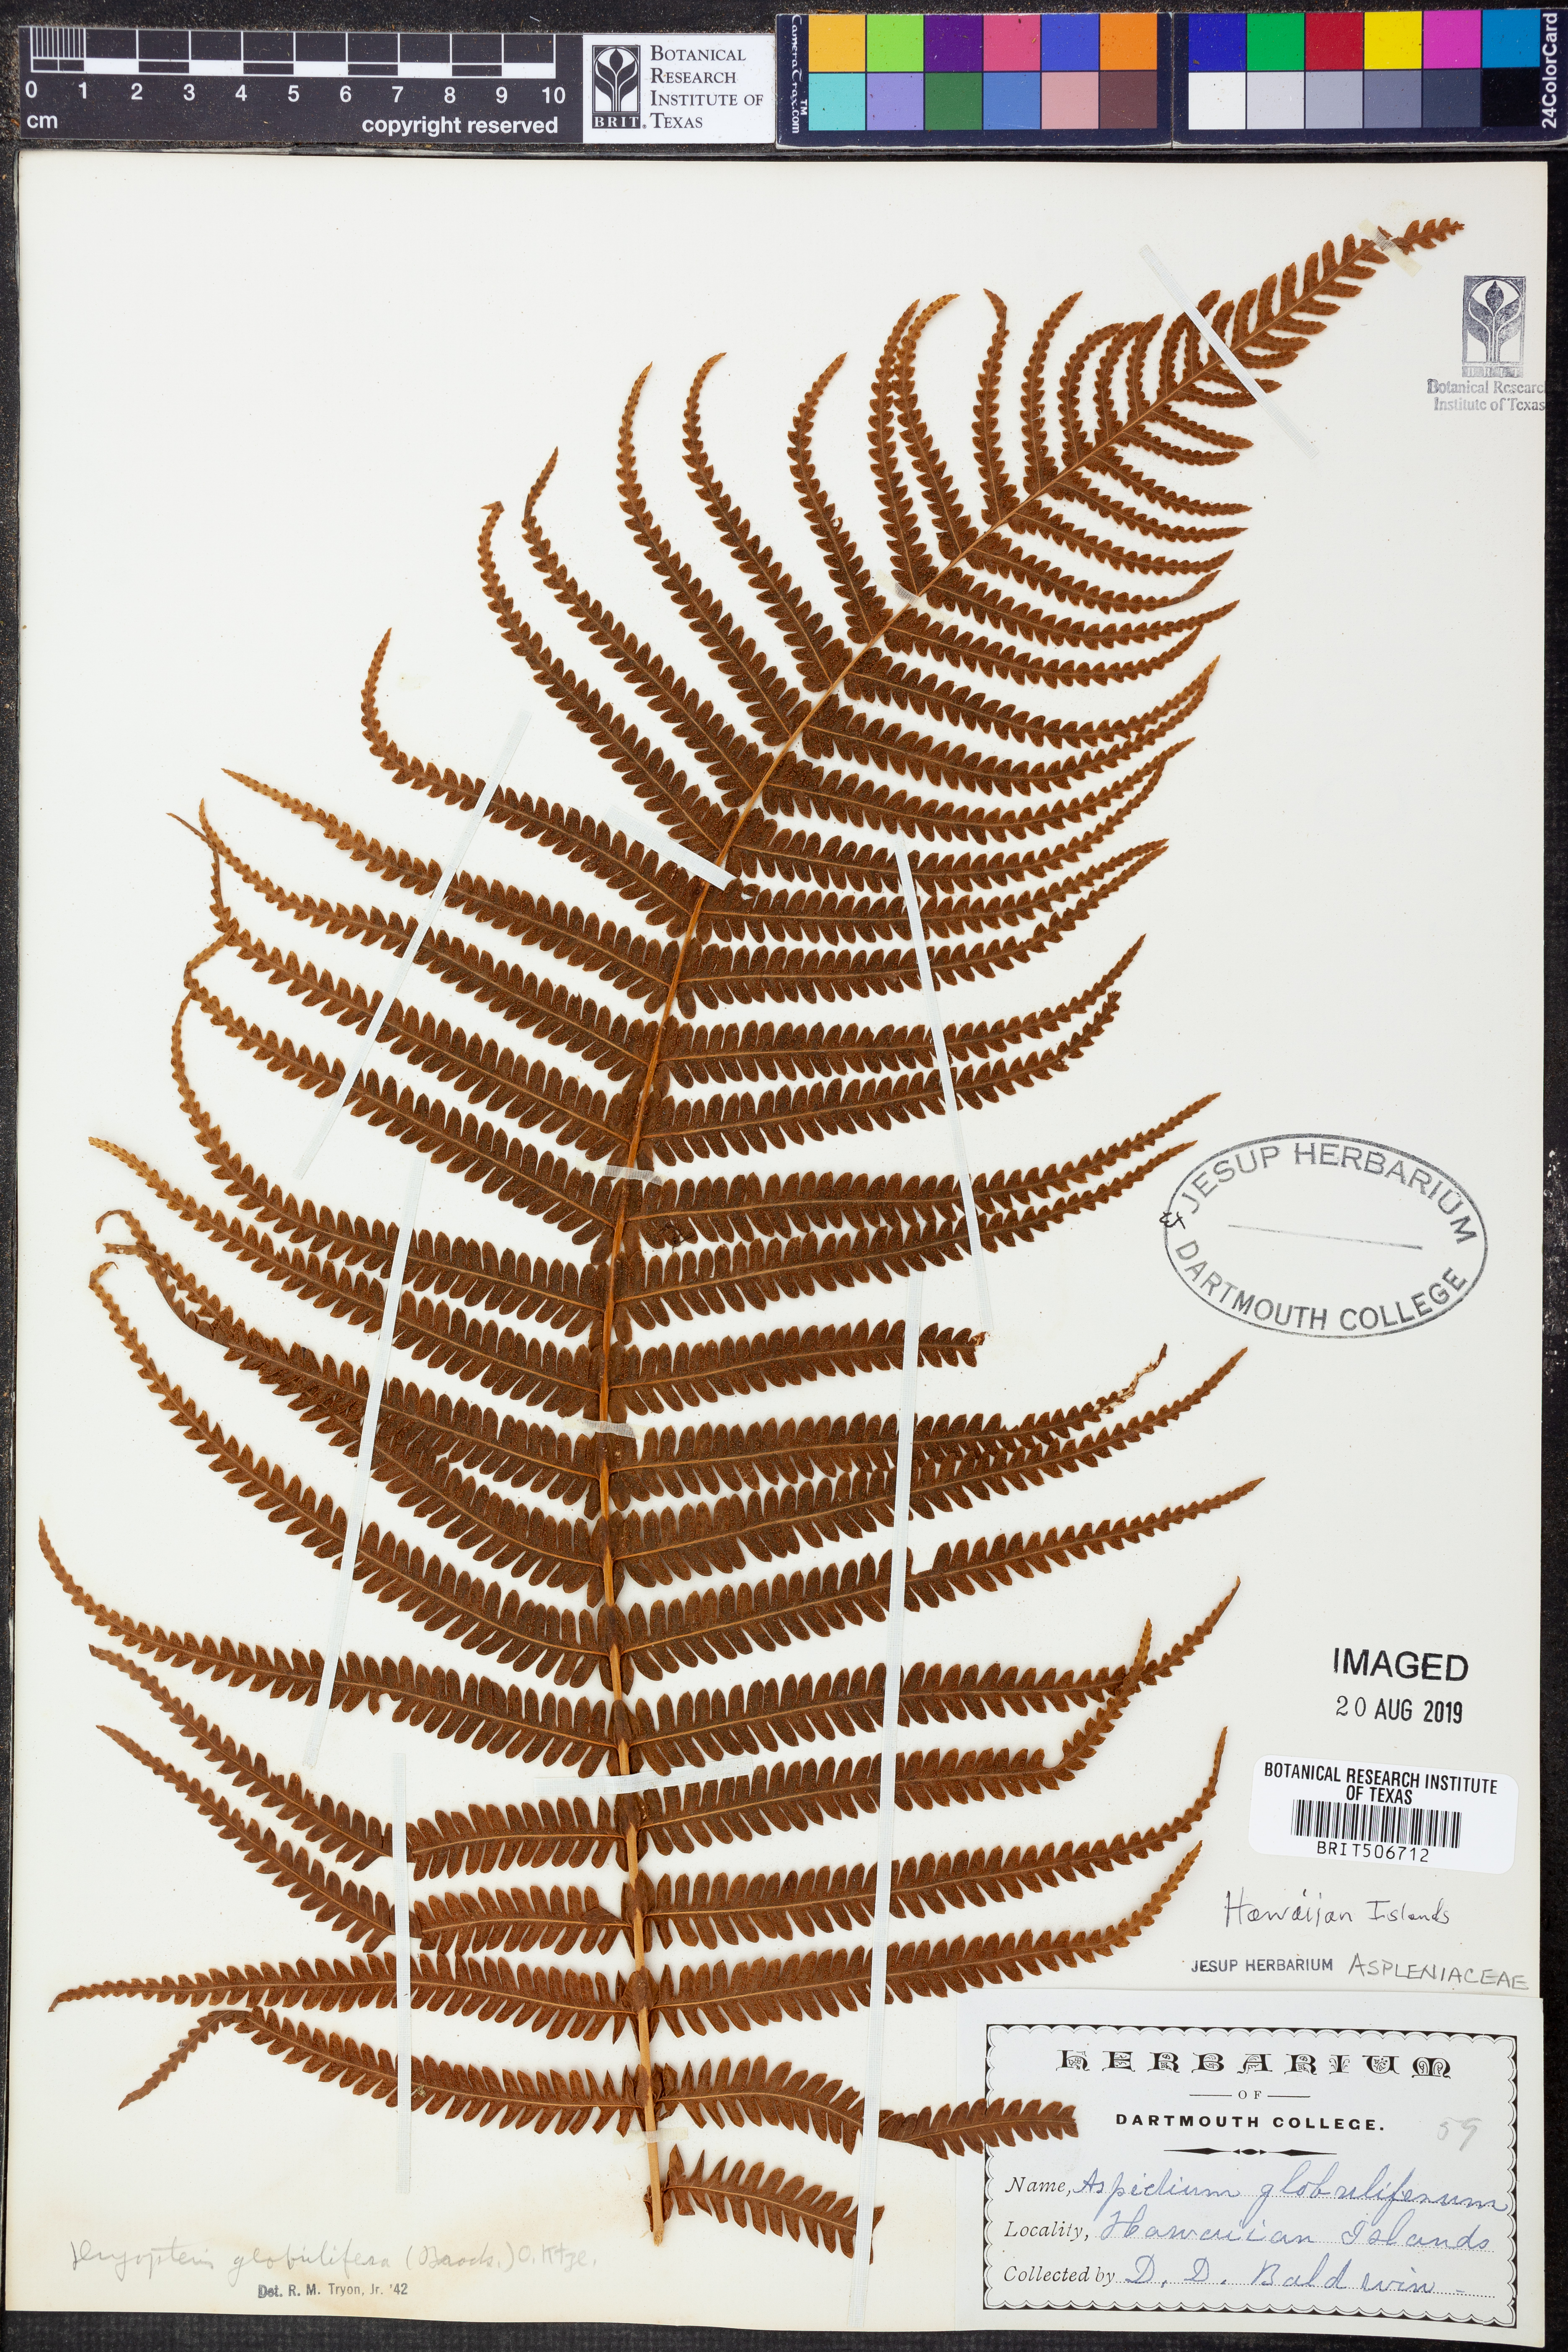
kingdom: Plantae
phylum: Tracheophyta
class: Polypodiopsida
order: Polypodiales
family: Thelypteridaceae
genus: Amauropelta
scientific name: Amauropelta globulifera
